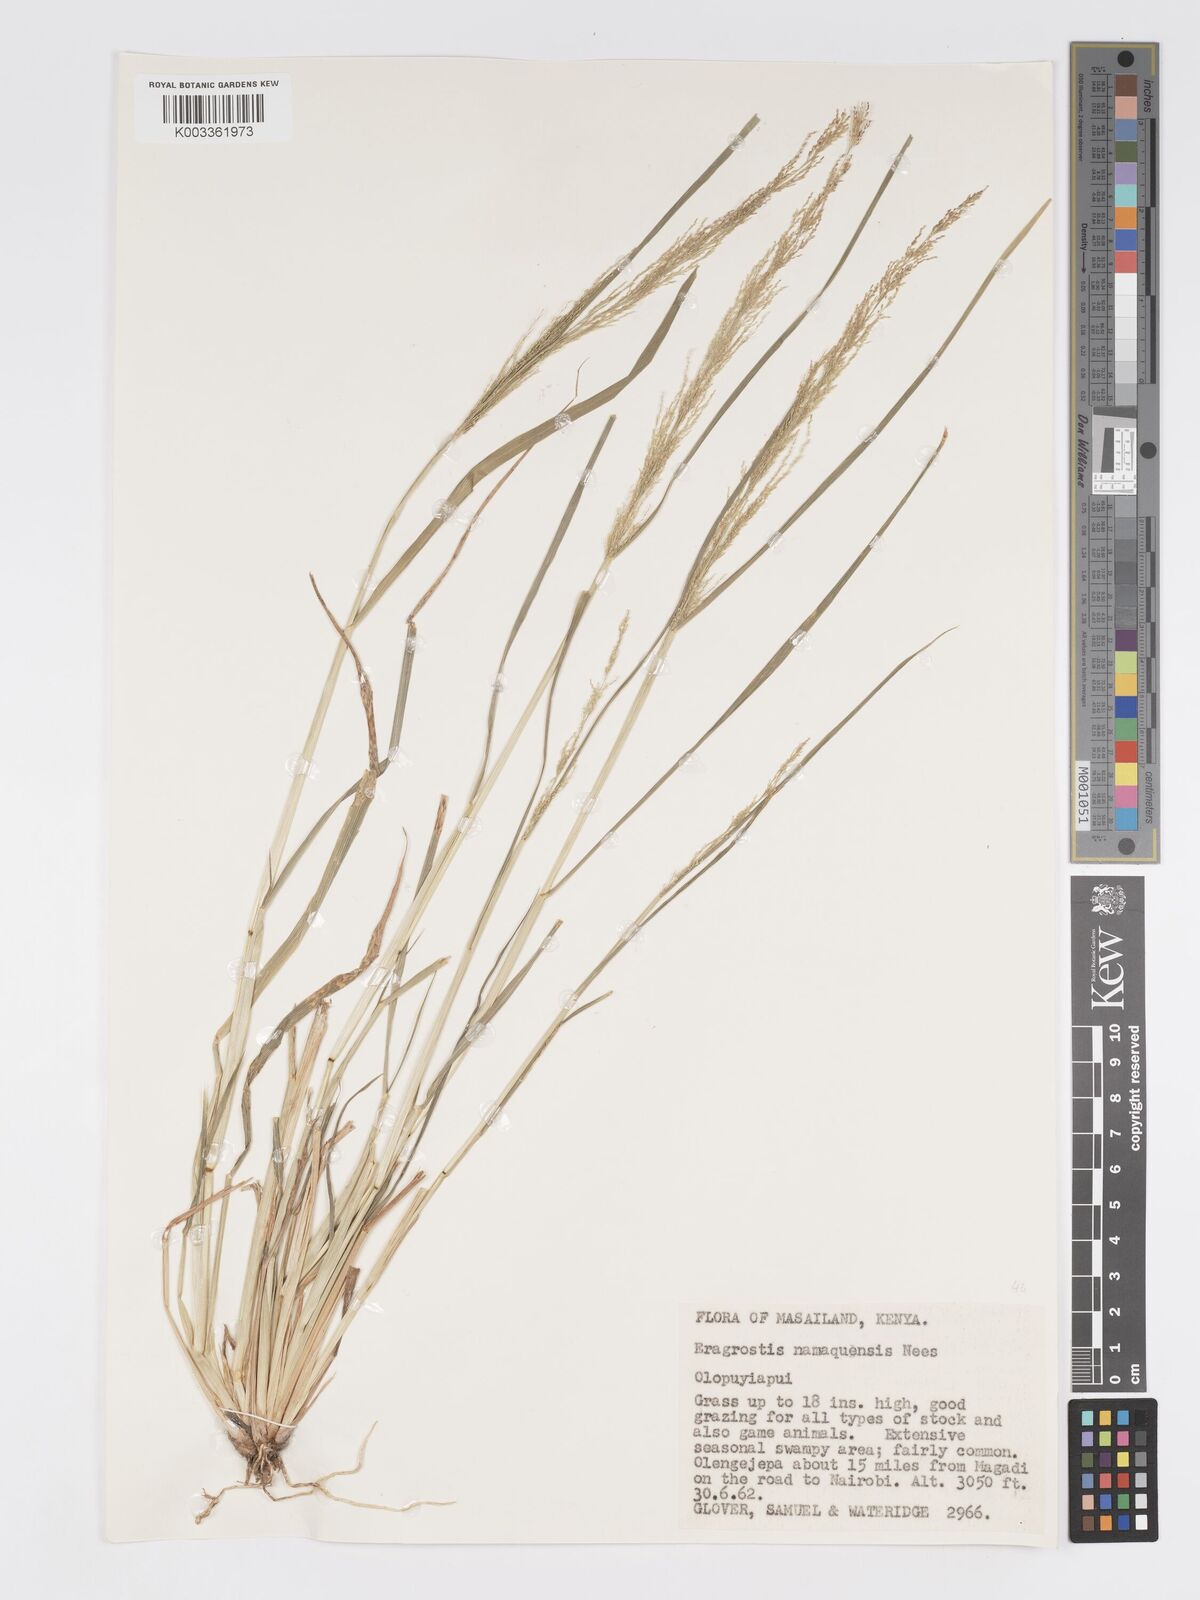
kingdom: Plantae
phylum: Tracheophyta
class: Liliopsida
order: Poales
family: Poaceae
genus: Eragrostis
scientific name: Eragrostis japonica
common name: Pond lovegrass
